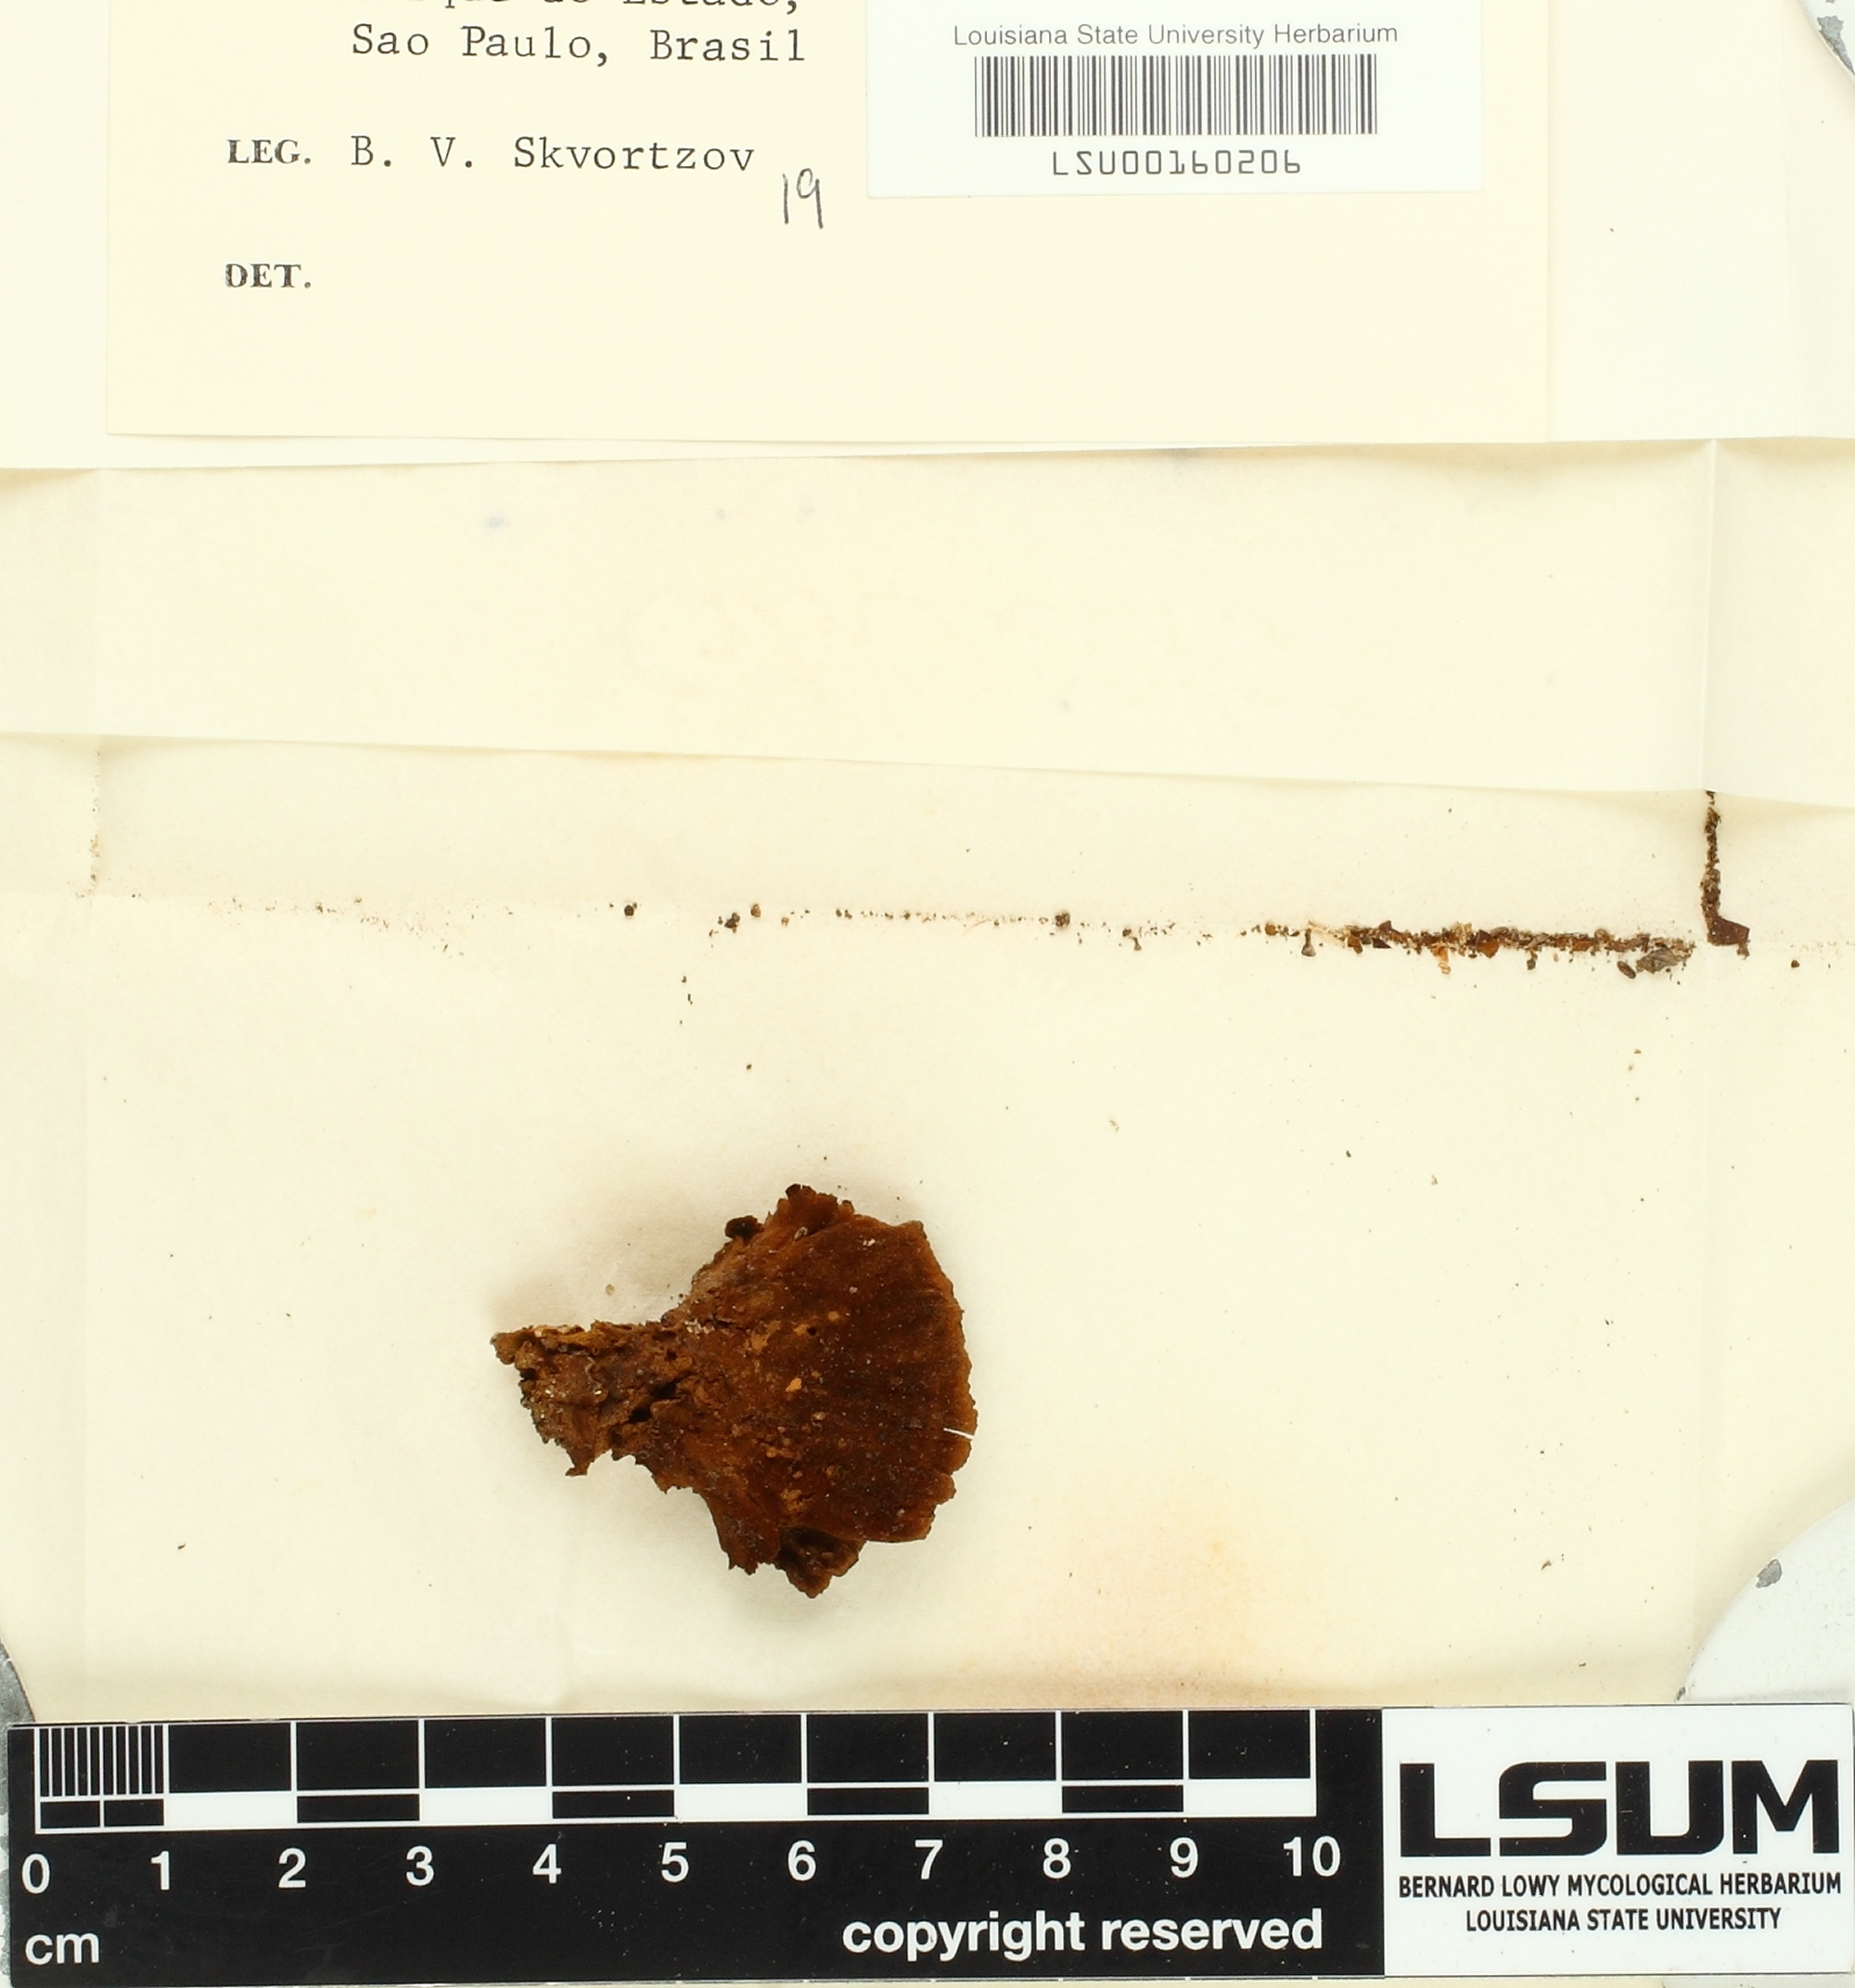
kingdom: Fungi
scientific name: Fungi
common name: Fungi
